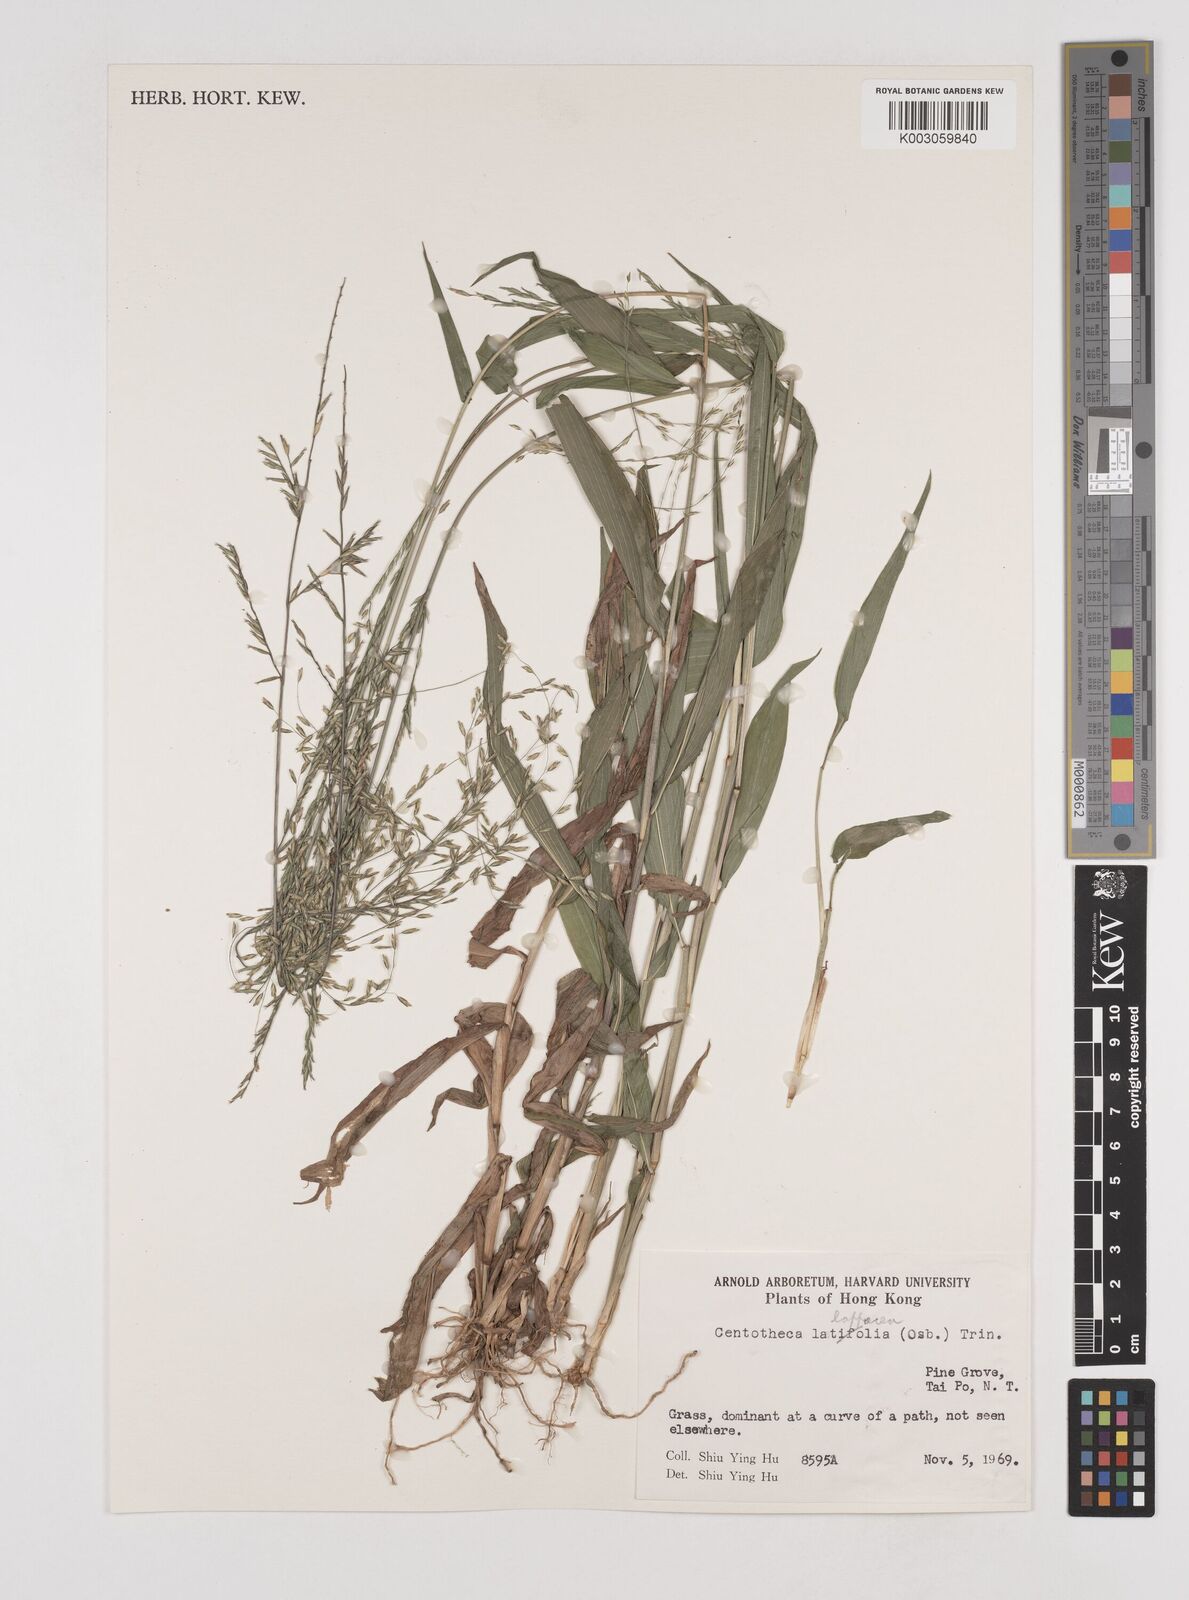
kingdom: Plantae
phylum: Tracheophyta
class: Liliopsida
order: Poales
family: Poaceae
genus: Centotheca
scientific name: Centotheca lappacea
